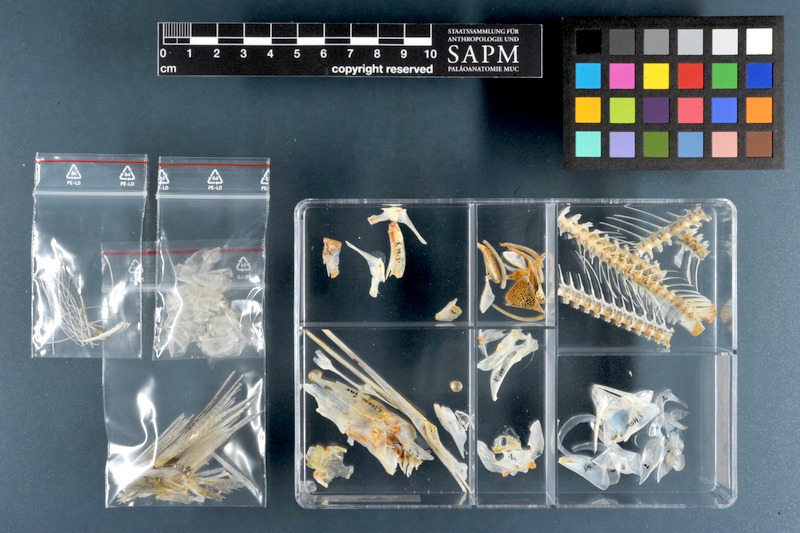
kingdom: Animalia
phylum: Chordata
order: Beloniformes
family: Hemiramphidae
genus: Hemiramphus
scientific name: Hemiramphus far
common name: Black-barred halfbeak
